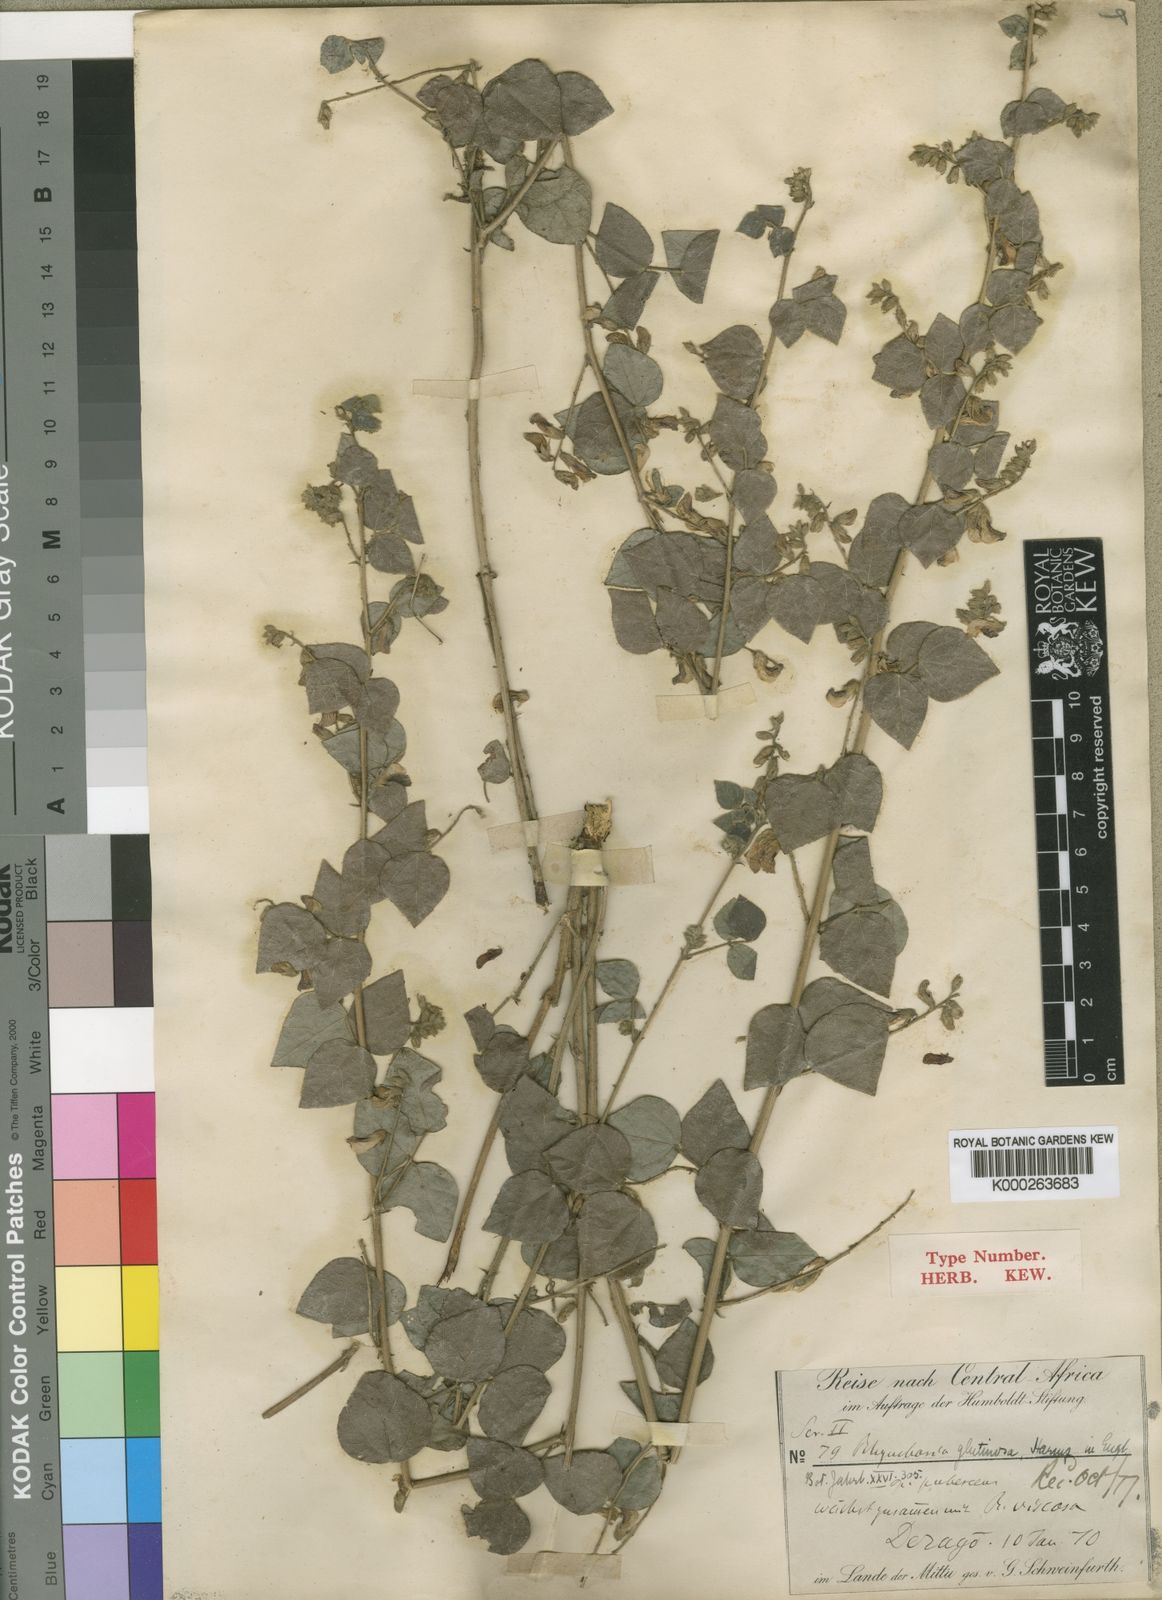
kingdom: Plantae
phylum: Tracheophyta
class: Magnoliopsida
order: Fabales
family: Fabaceae
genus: Rhynchosia
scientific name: Rhynchosia nyasica
